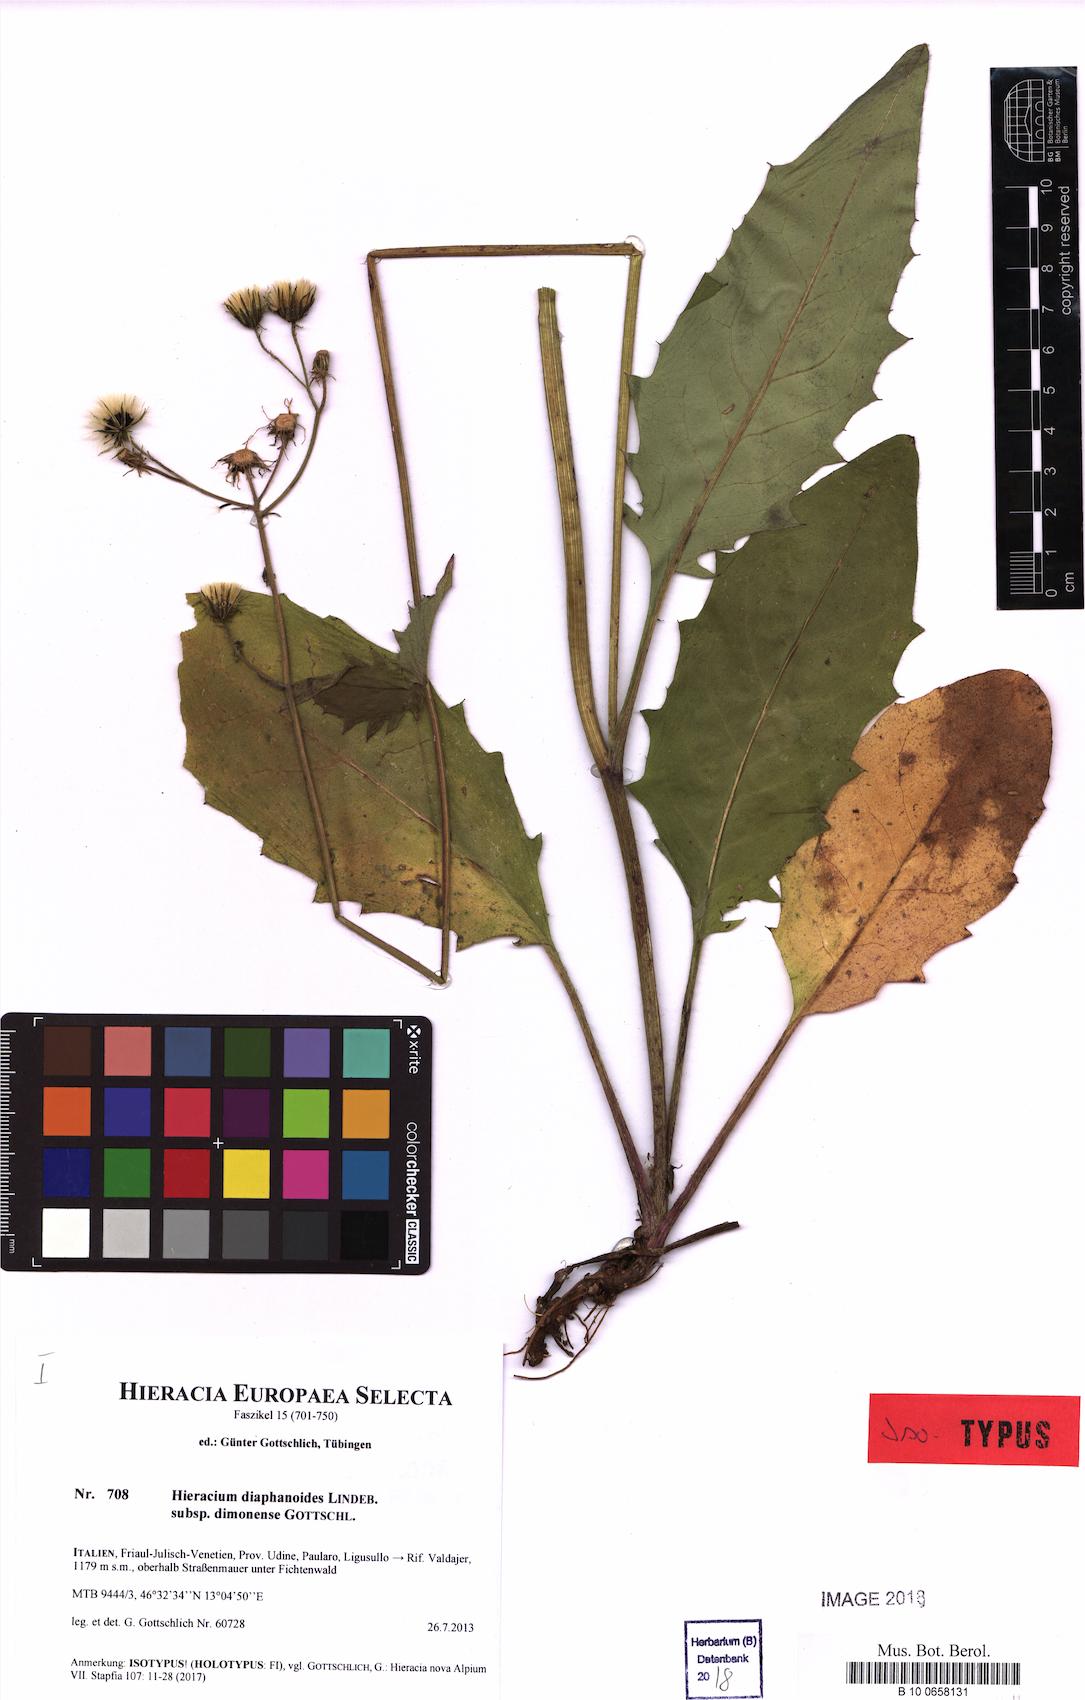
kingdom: Plantae
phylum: Tracheophyta
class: Magnoliopsida
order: Asterales
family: Asteraceae
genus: Hieracium
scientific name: Hieracium diaphanoides
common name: Fine-bracted hawkweed
